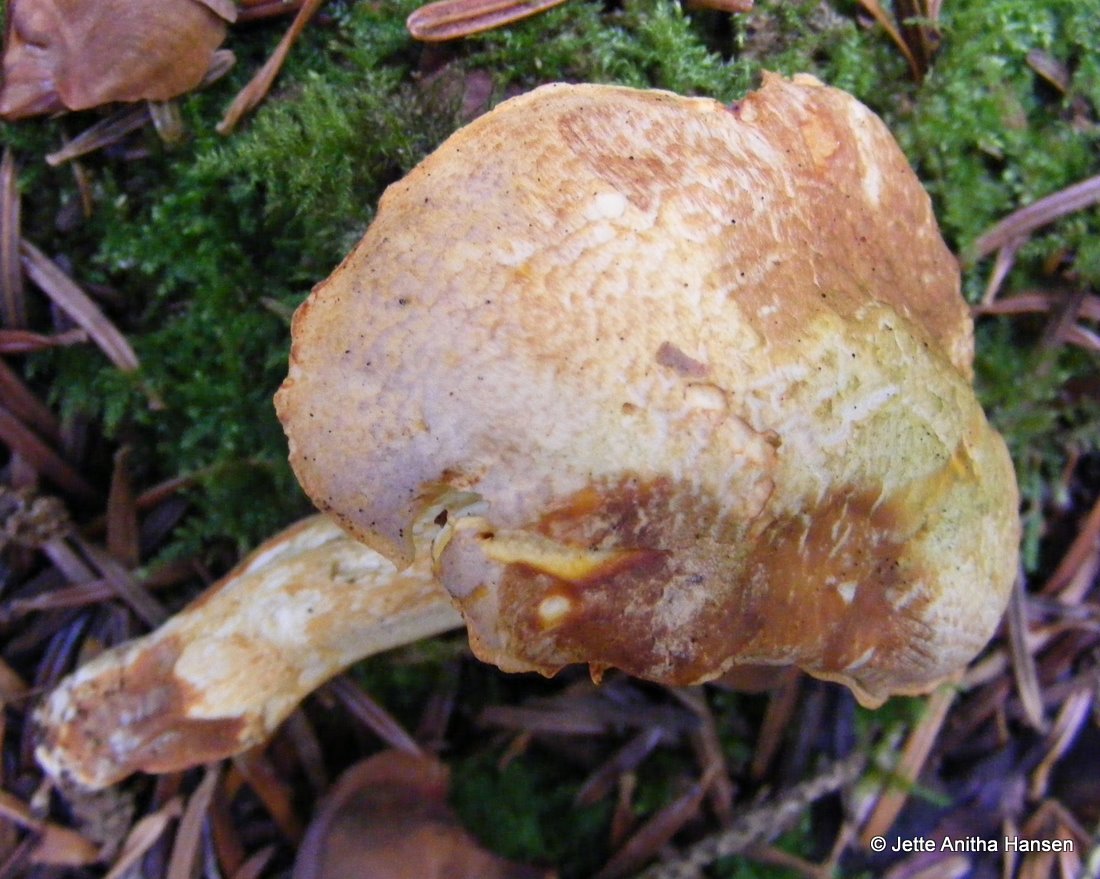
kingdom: Fungi
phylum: Basidiomycota
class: Agaricomycetes
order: Cantharellales
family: Hydnaceae
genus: Cantharellus
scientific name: Cantharellus amethysteus
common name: ametyst-kantarel
